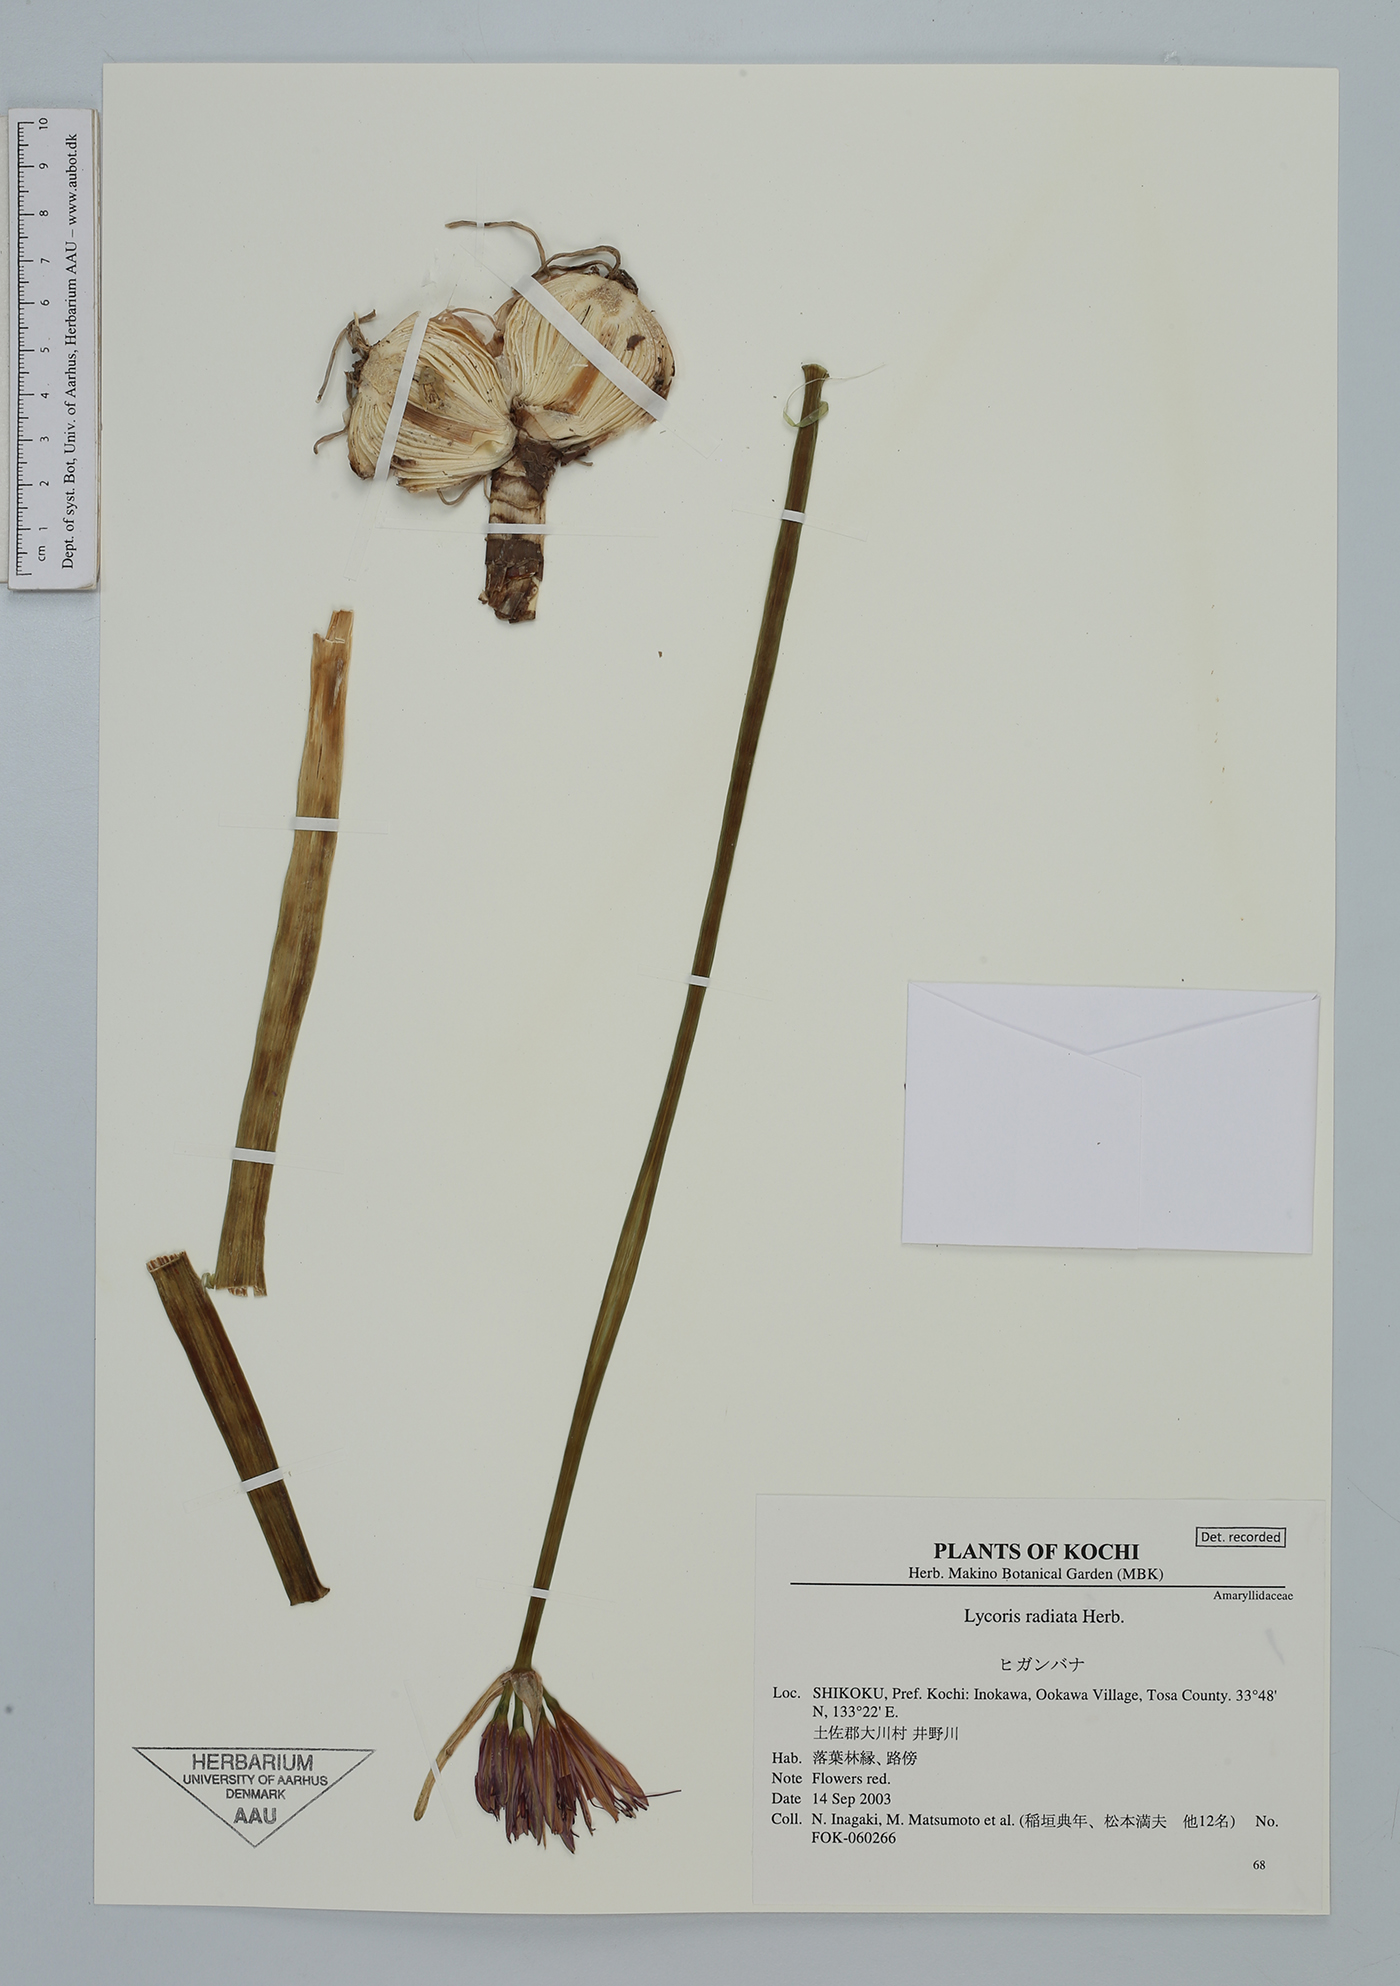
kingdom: Plantae
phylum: Tracheophyta
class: Liliopsida
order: Asparagales
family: Amaryllidaceae
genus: Lycoris
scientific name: Lycoris radiata
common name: Red spider lily
